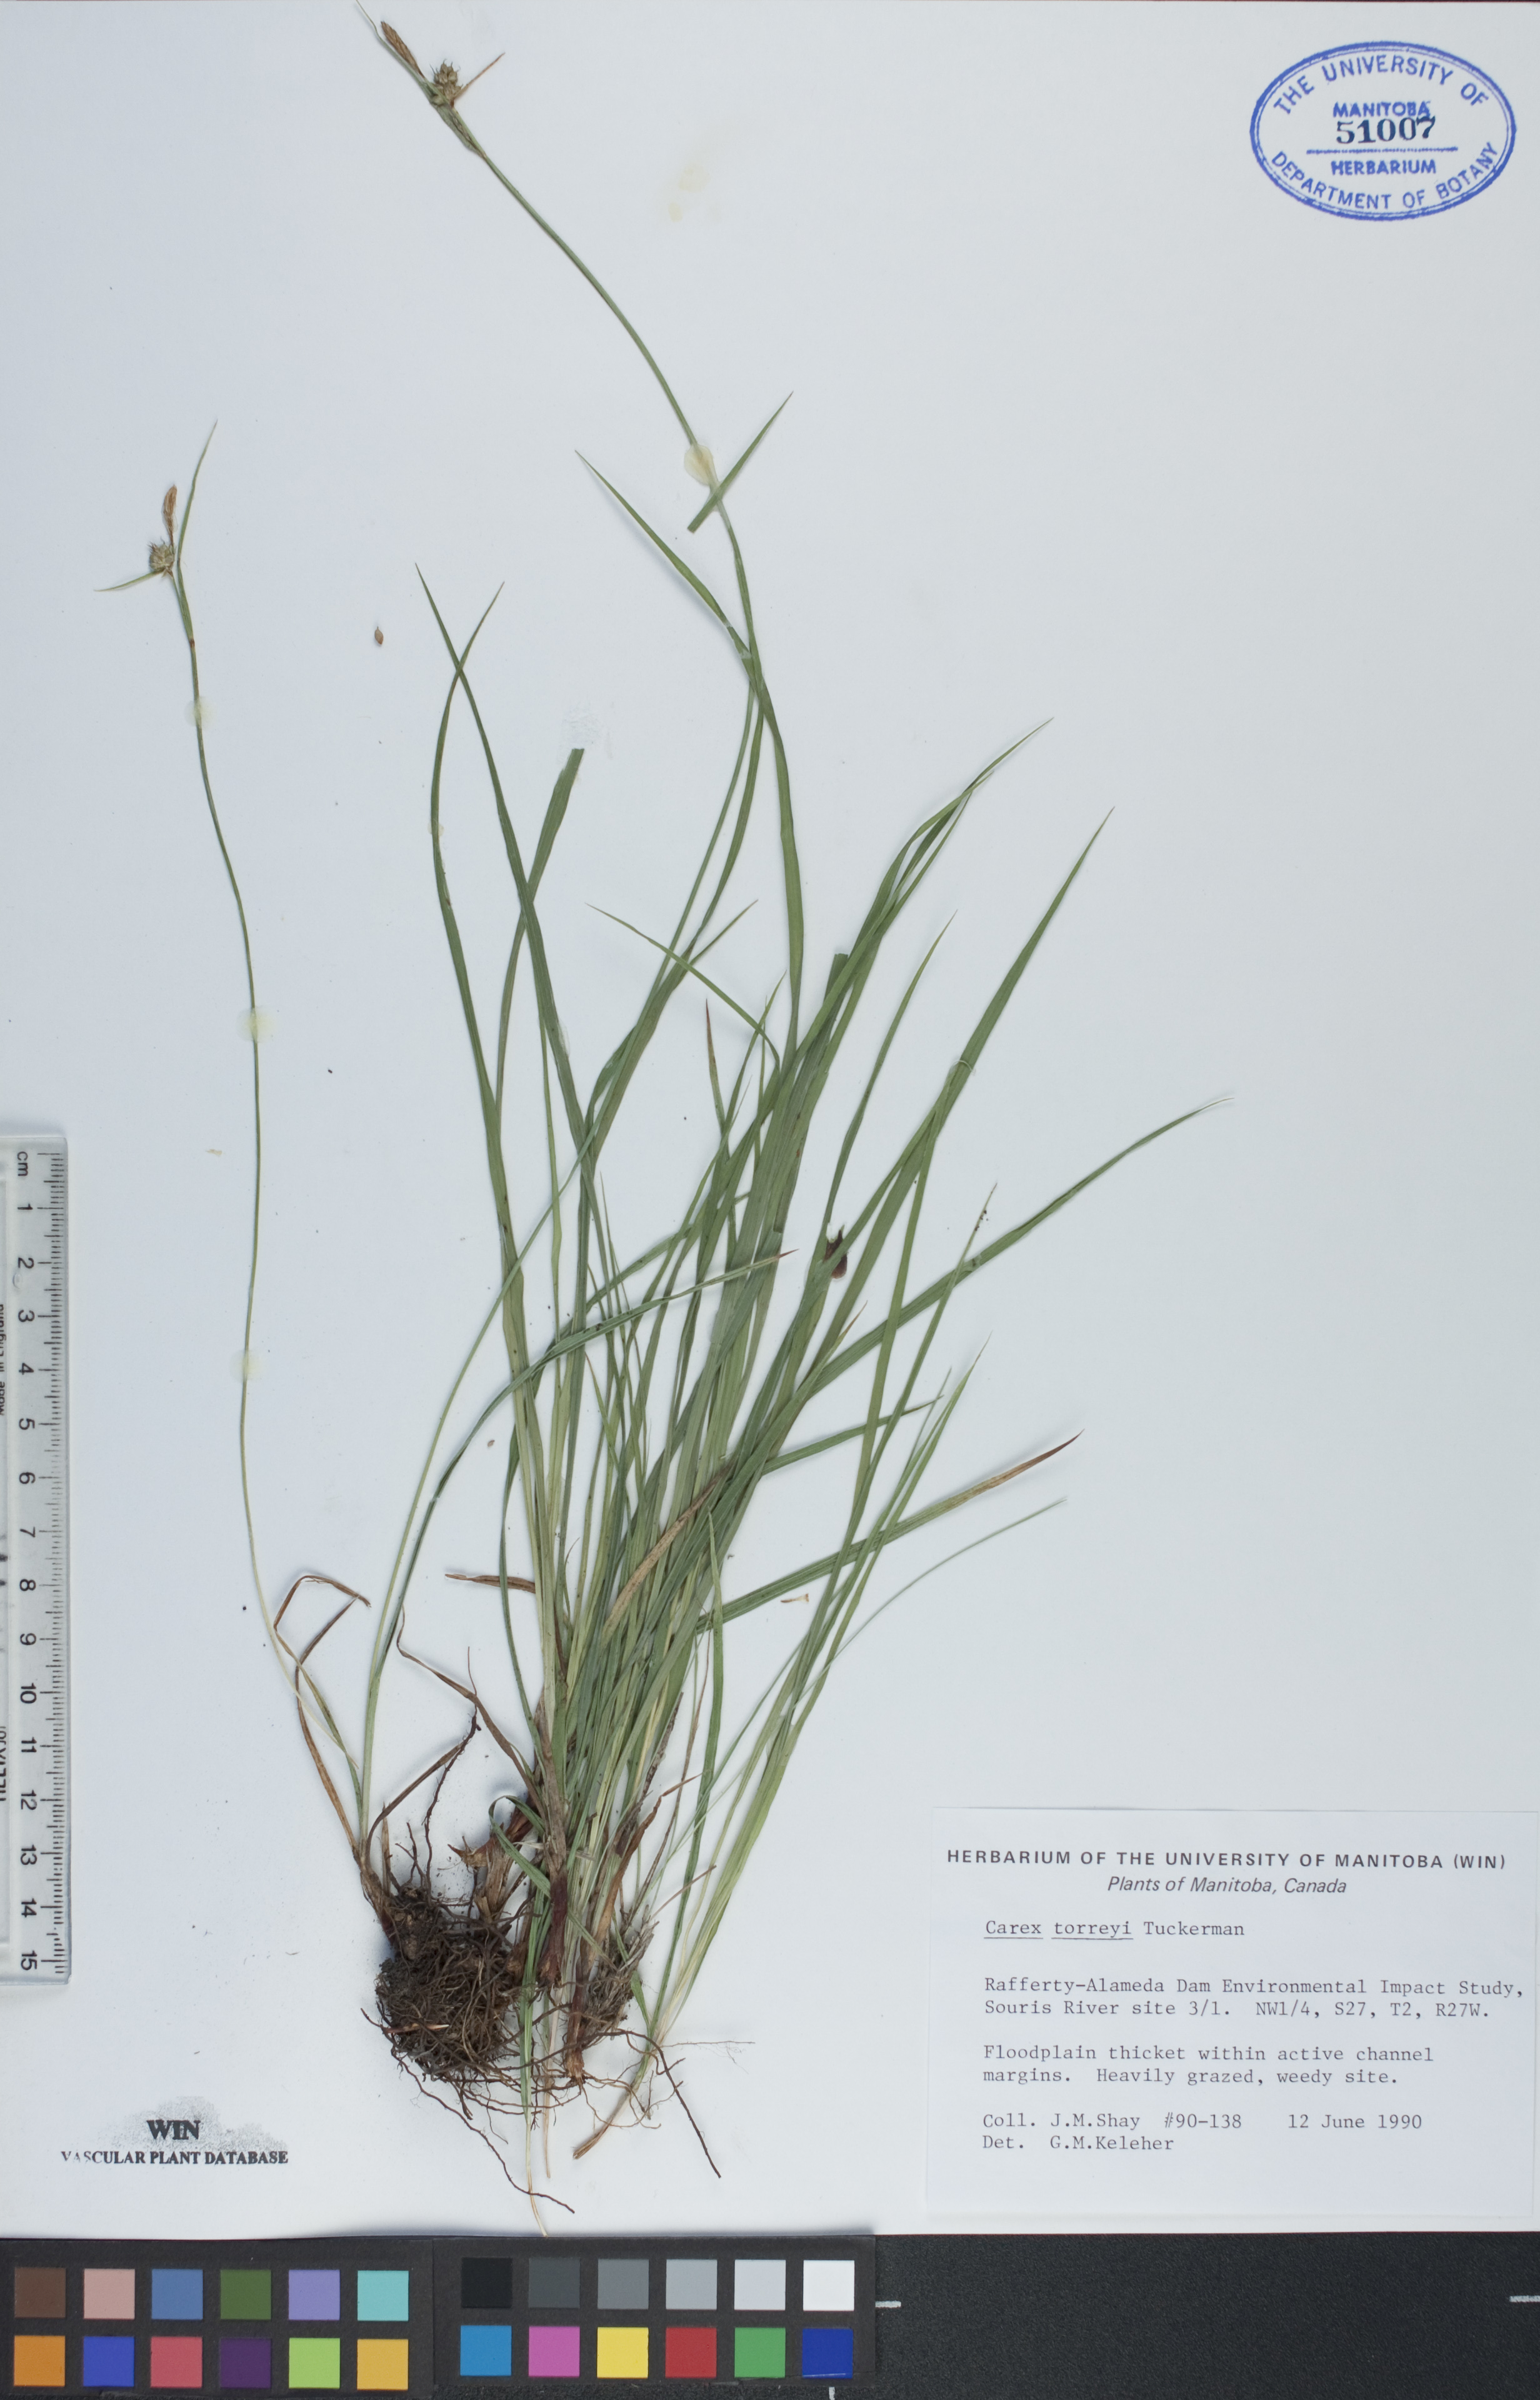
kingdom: Plantae
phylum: Tracheophyta
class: Liliopsida
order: Poales
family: Cyperaceae
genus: Carex
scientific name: Carex torreyi
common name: Torrey's sedge
